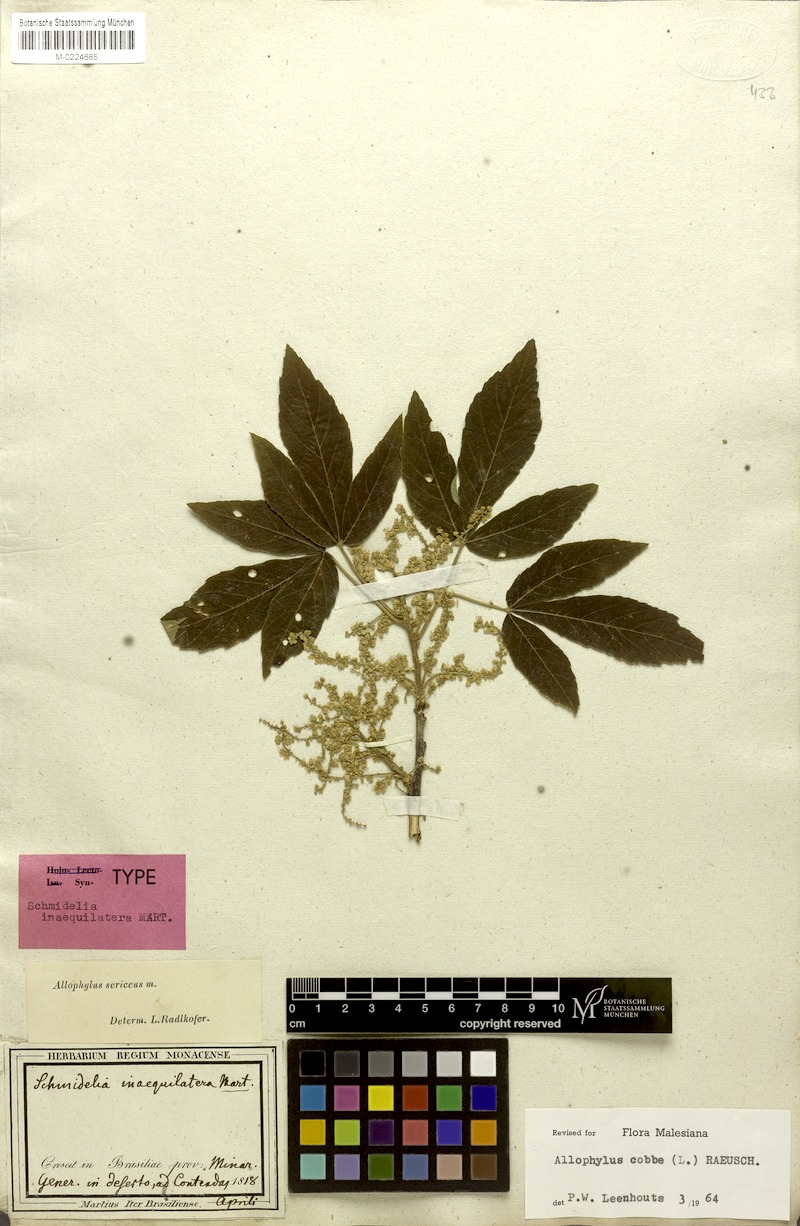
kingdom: Plantae
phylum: Tracheophyta
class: Magnoliopsida
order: Sapindales
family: Sapindaceae
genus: Allophylus
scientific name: Allophylus sericeus
